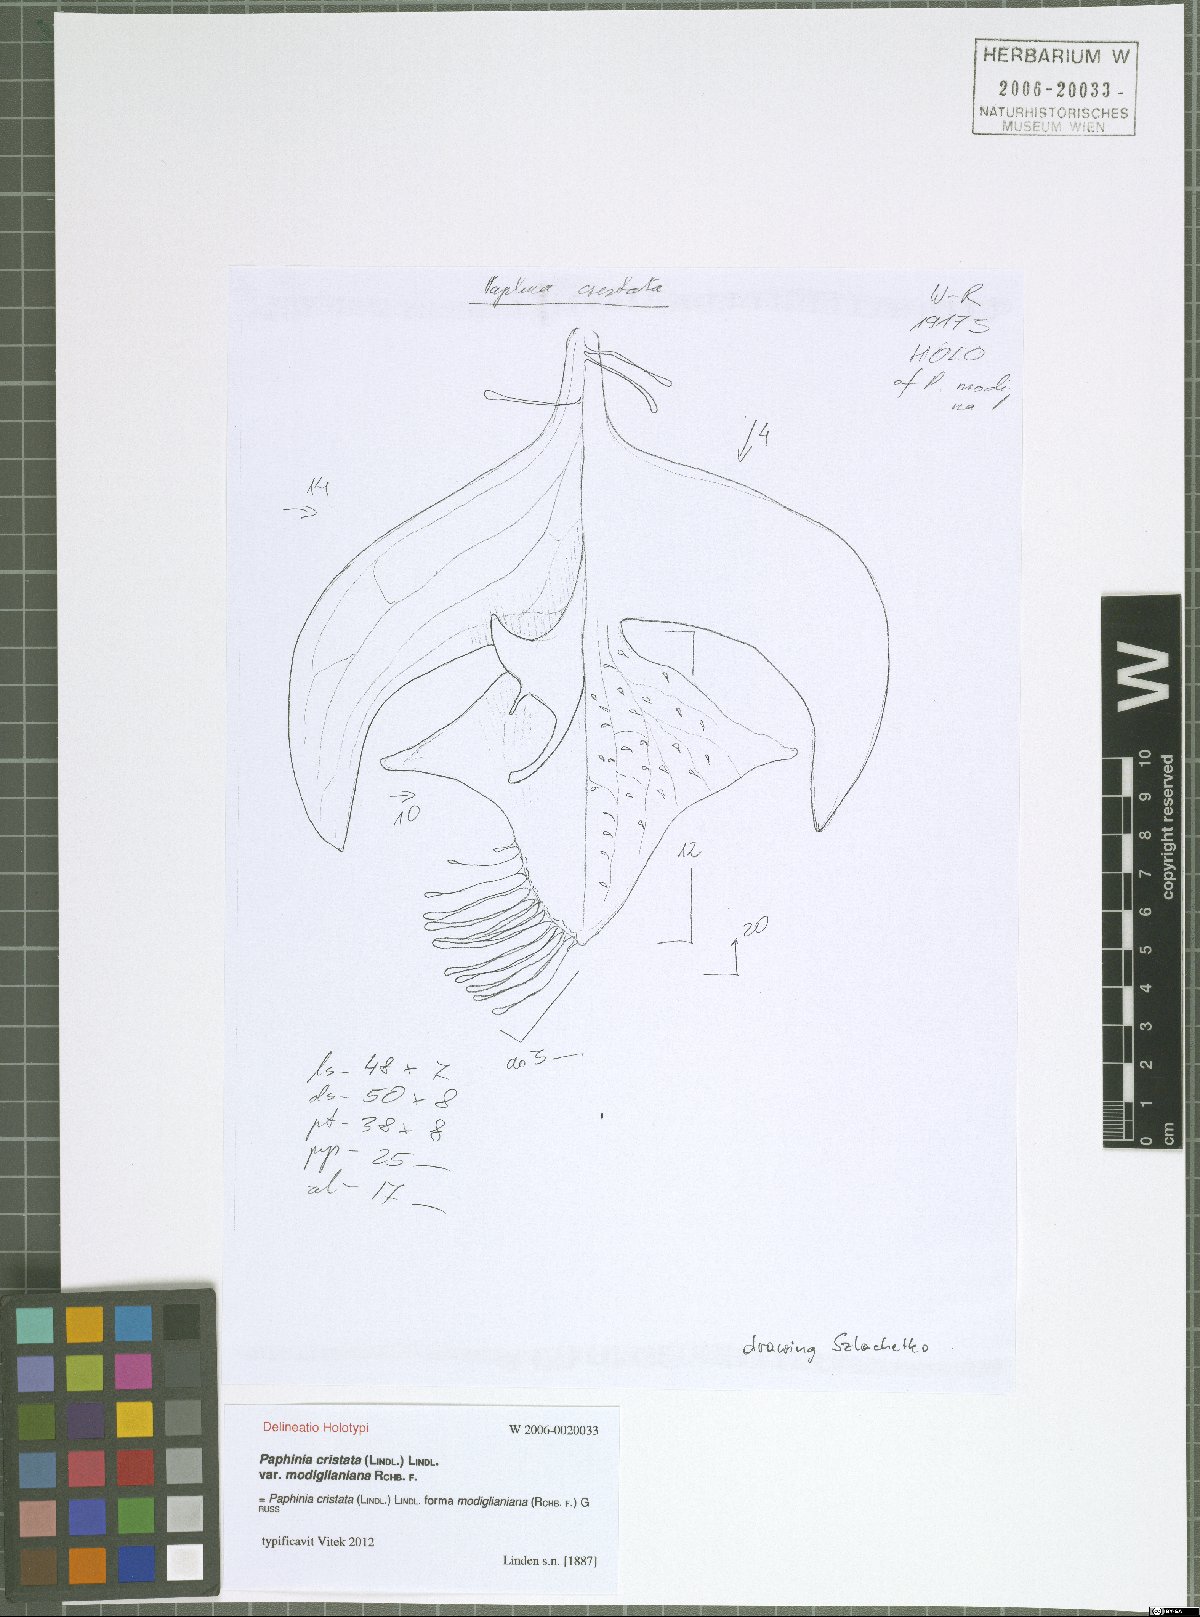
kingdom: Plantae
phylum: Tracheophyta
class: Liliopsida
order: Asparagales
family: Orchidaceae
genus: Paphinia
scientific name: Paphinia cristata
